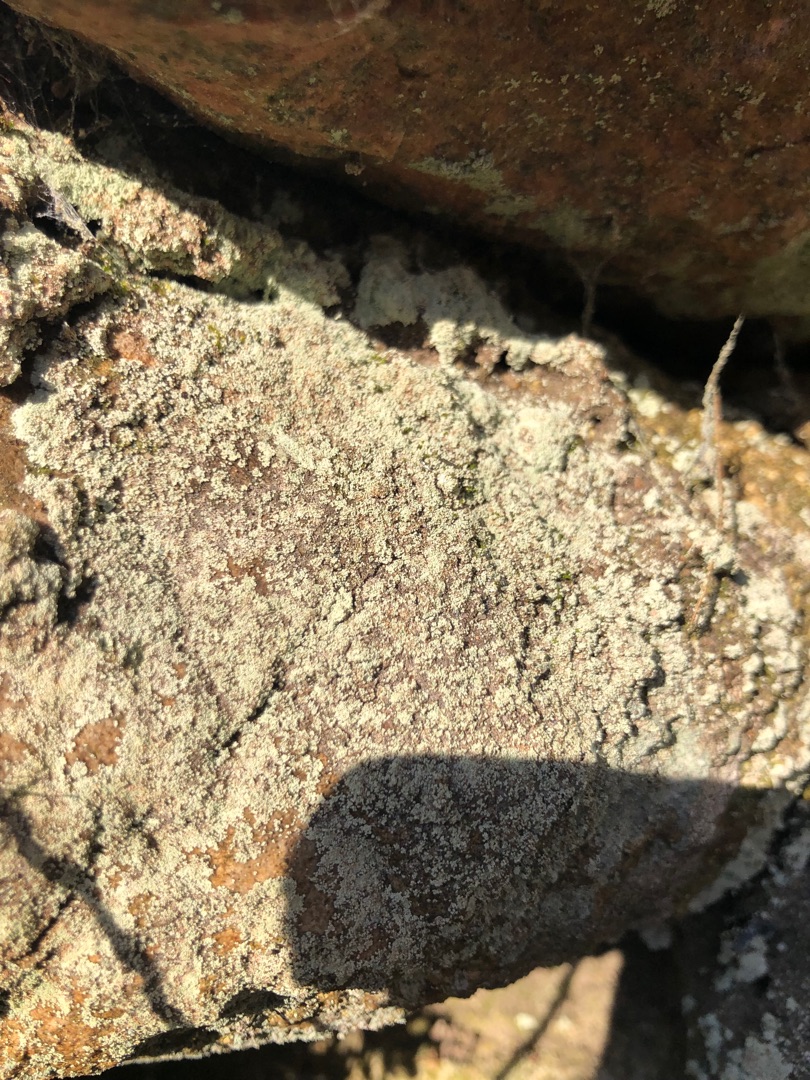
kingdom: Fungi
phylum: Ascomycota
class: Lecanoromycetes
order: Lecanorales
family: Stereocaulaceae
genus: Lepraria
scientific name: Lepraria
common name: Støvlav
